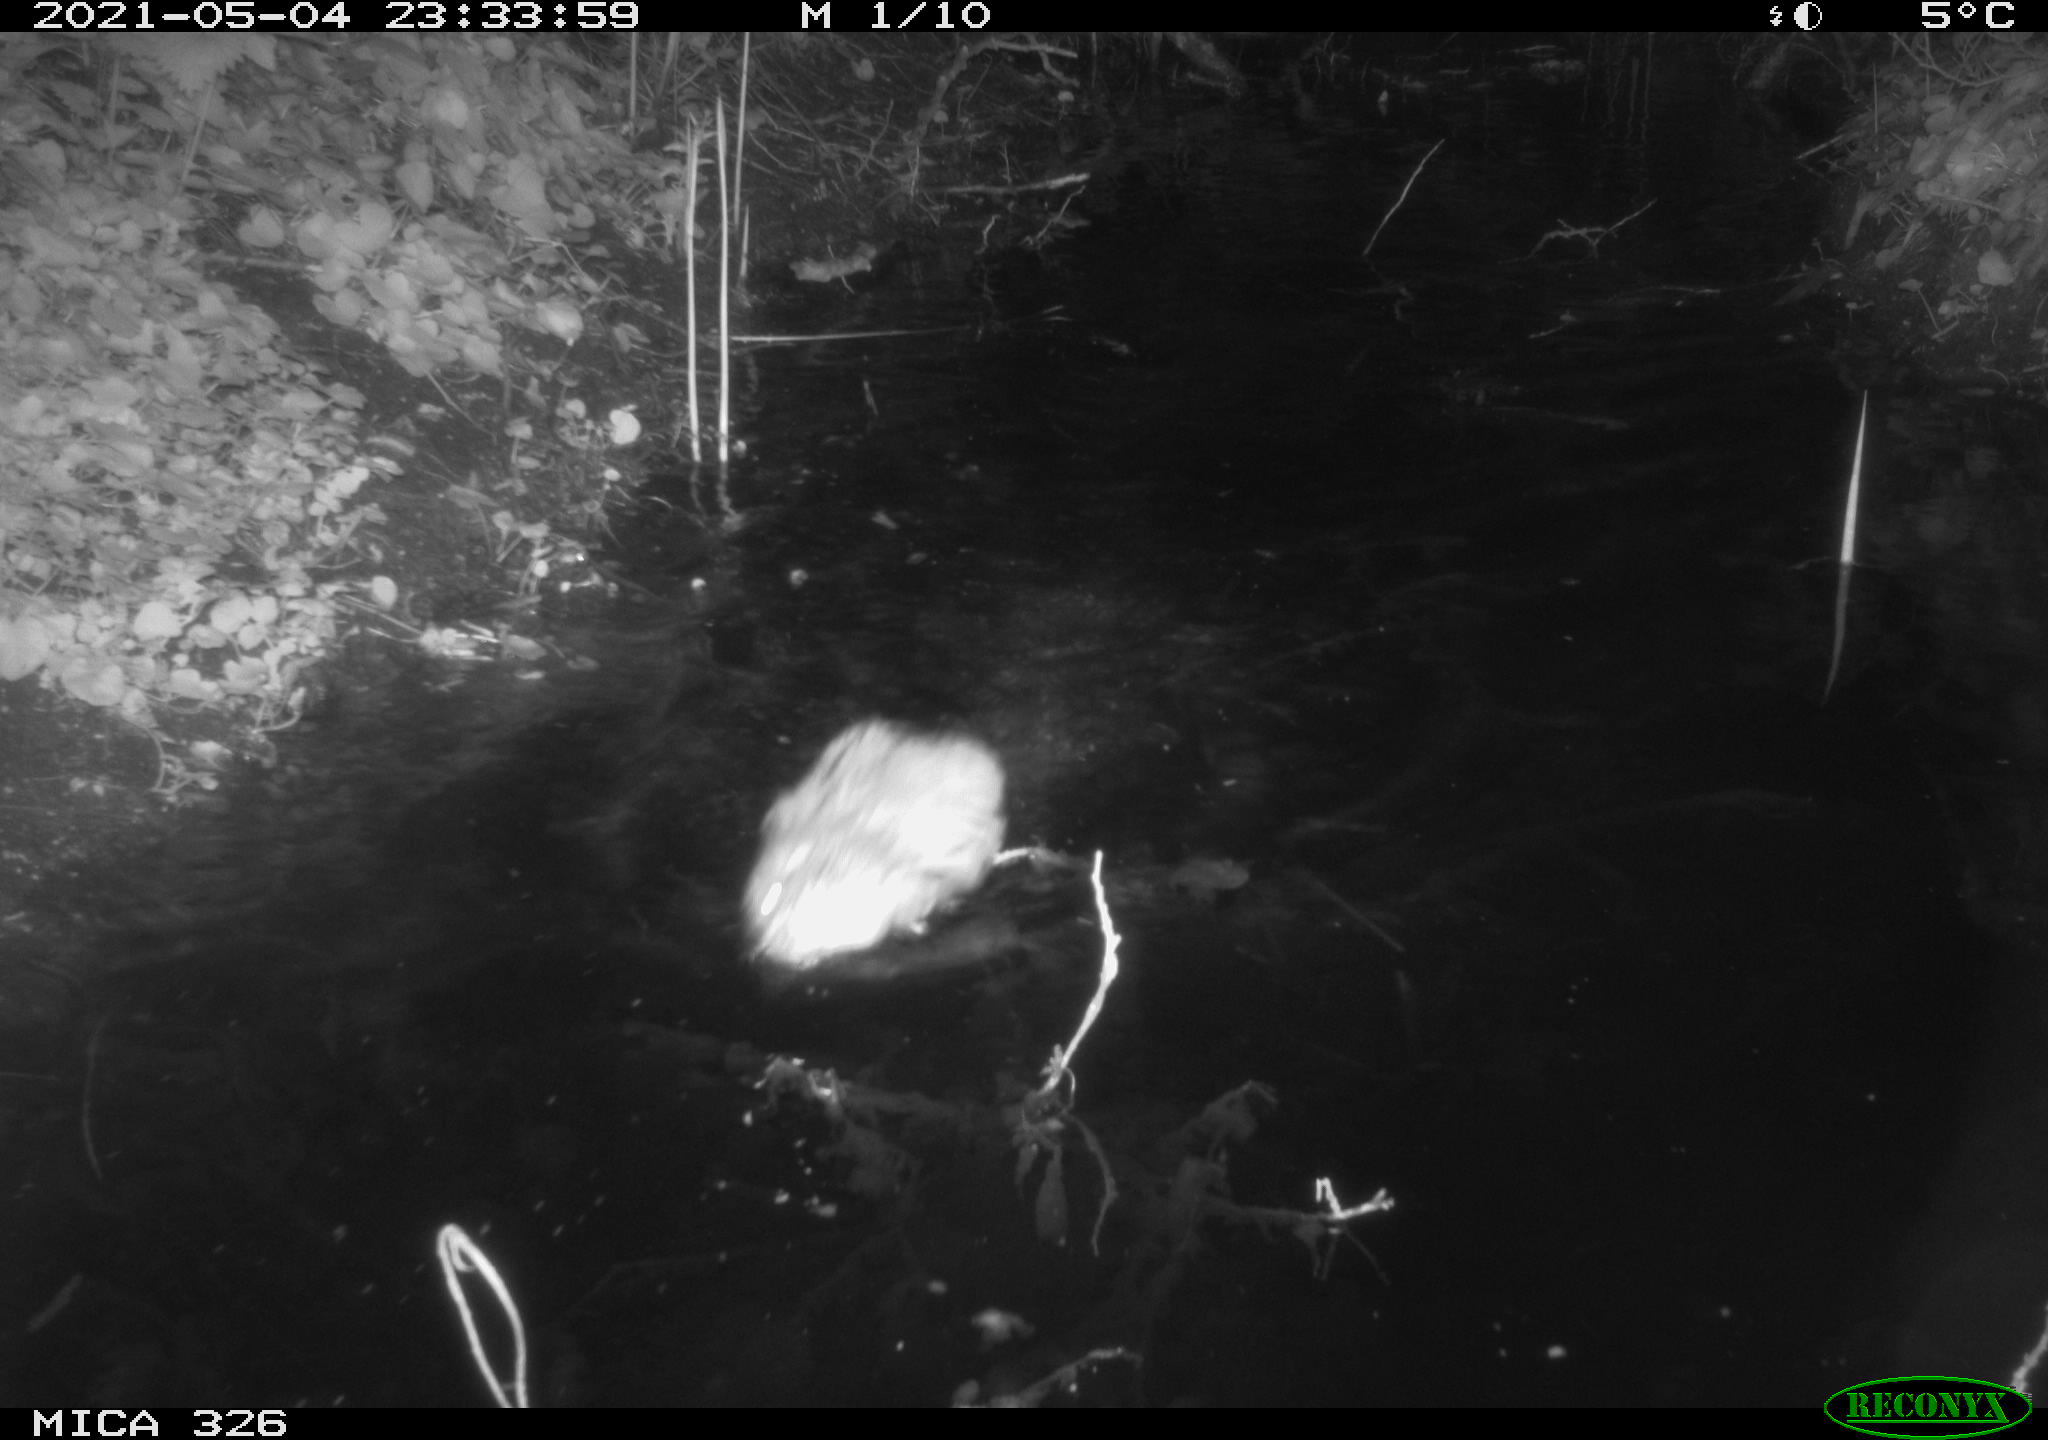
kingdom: Animalia
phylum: Chordata
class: Mammalia
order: Rodentia
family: Cricetidae
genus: Ondatra
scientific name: Ondatra zibethicus
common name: Muskrat
